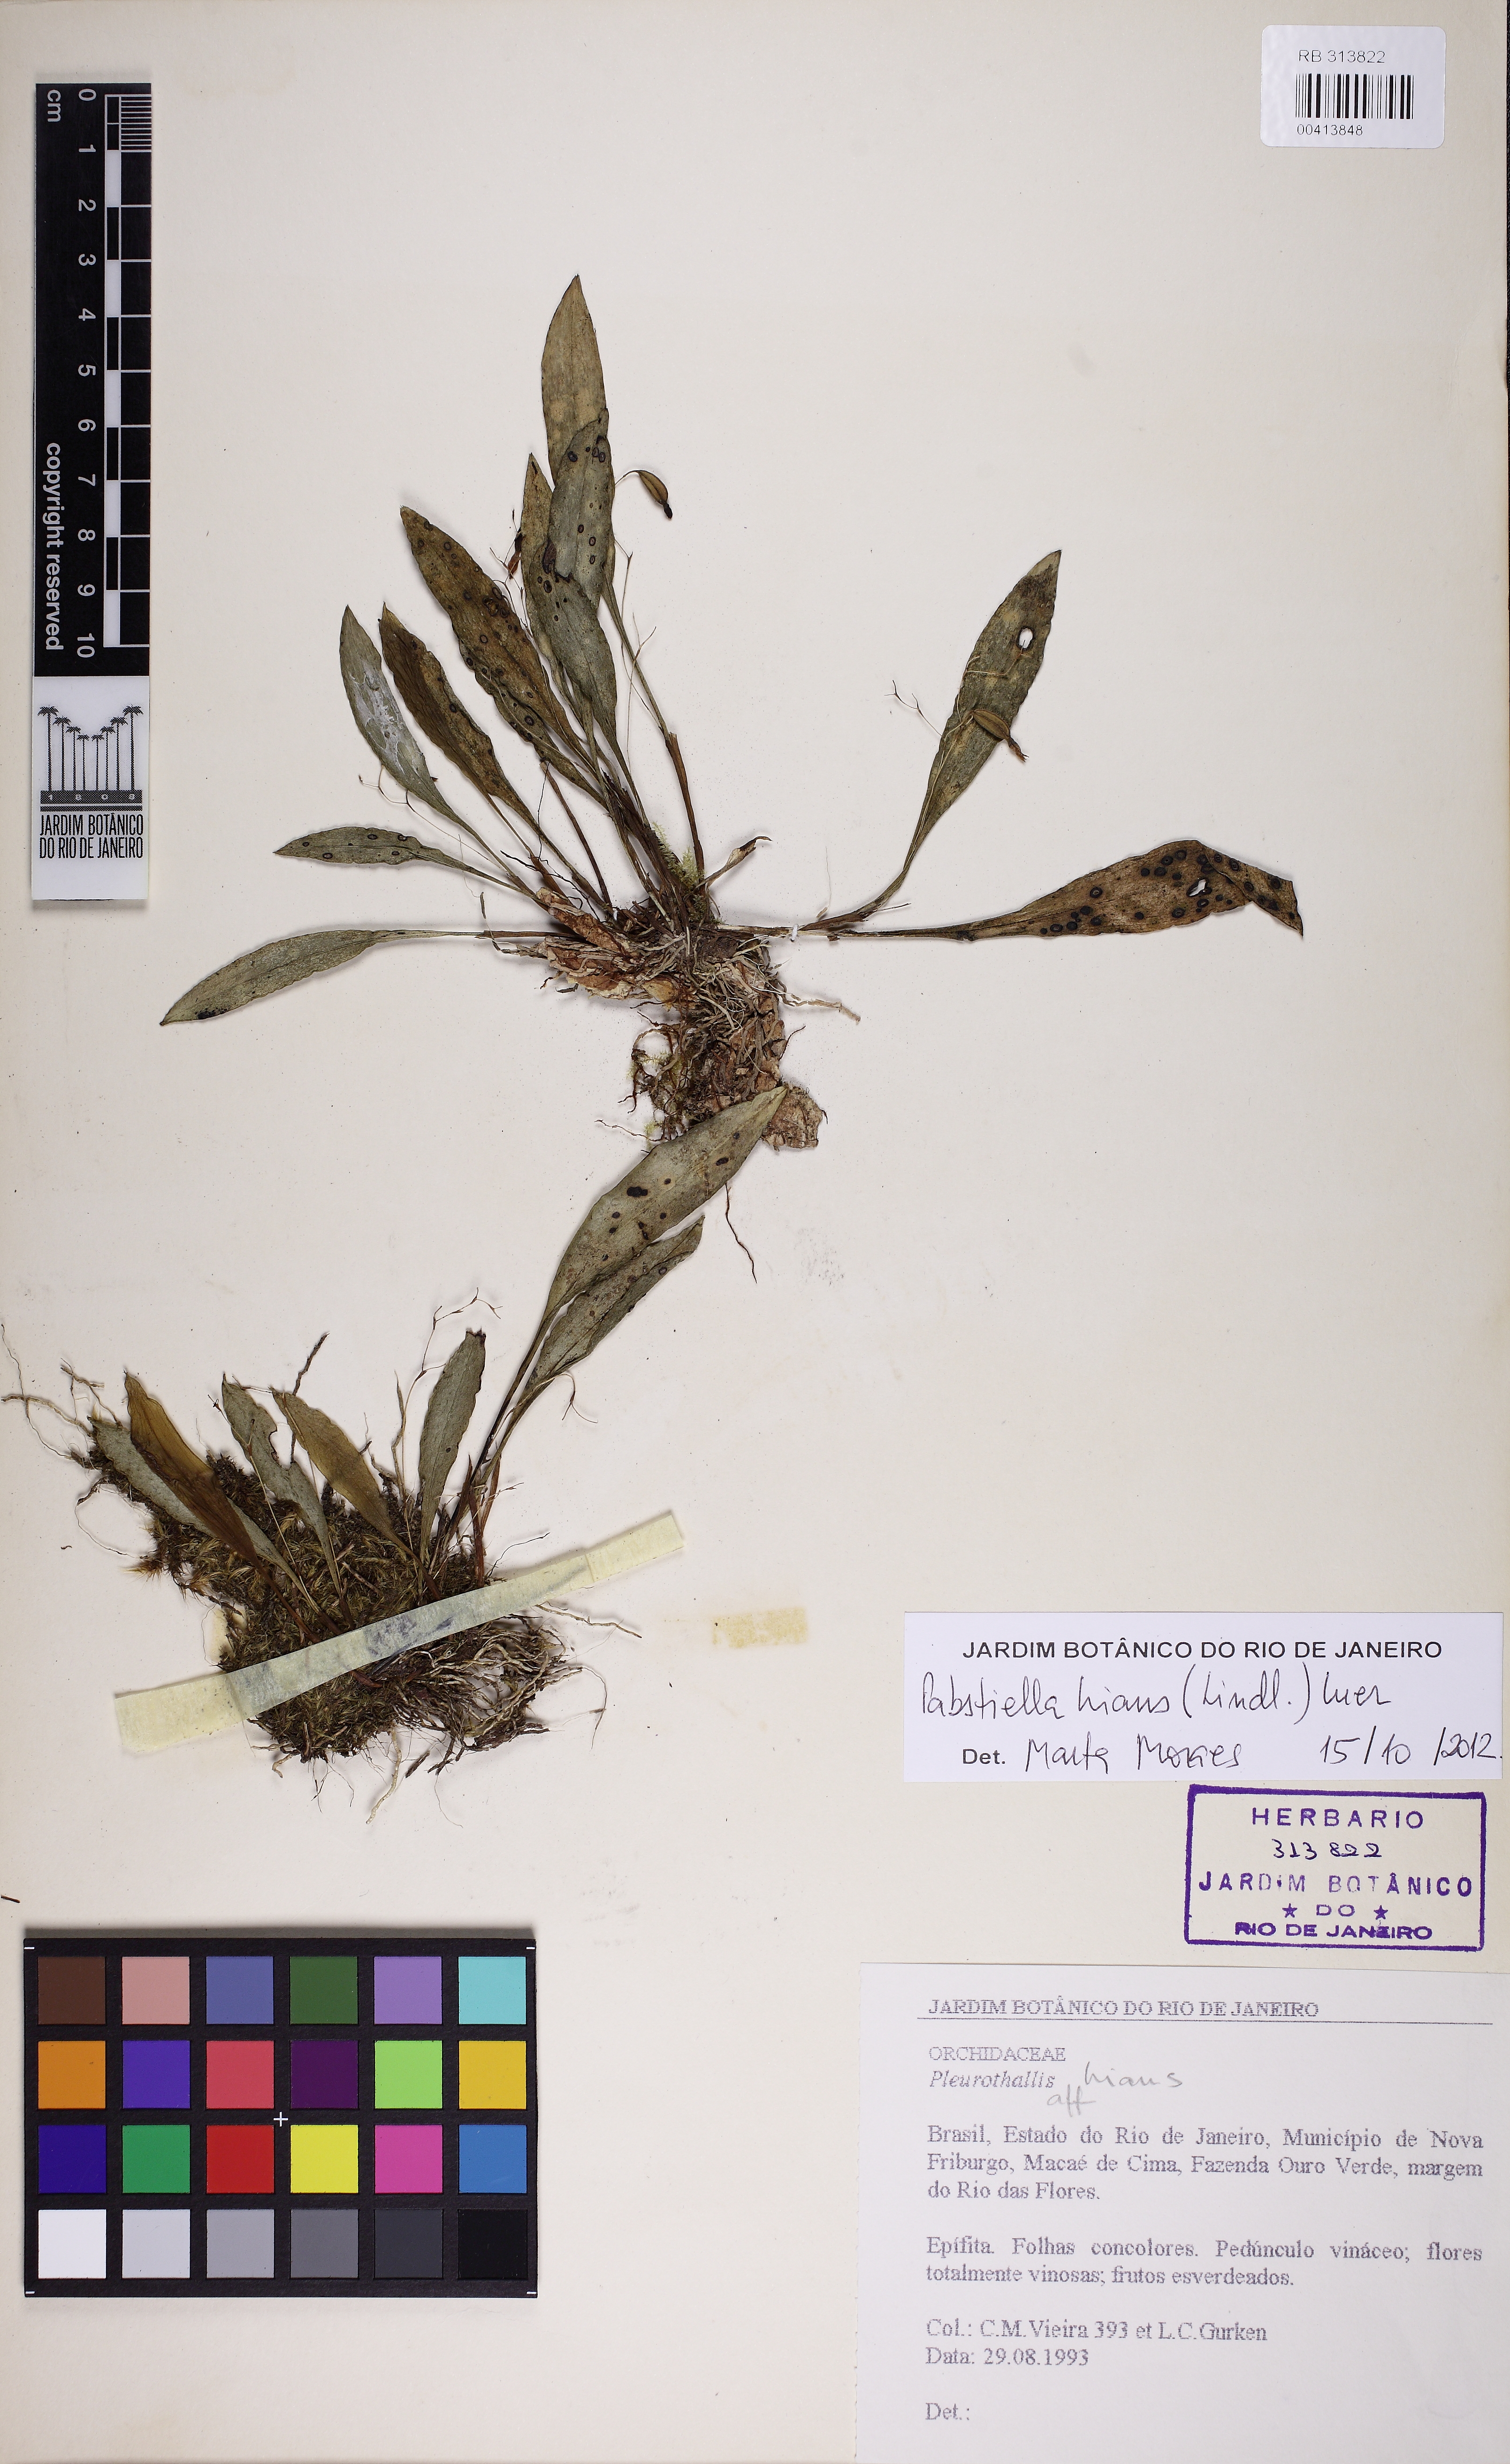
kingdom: Plantae
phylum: Tracheophyta
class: Liliopsida
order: Asparagales
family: Orchidaceae
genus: Pabstiella
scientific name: Pabstiella fusca
